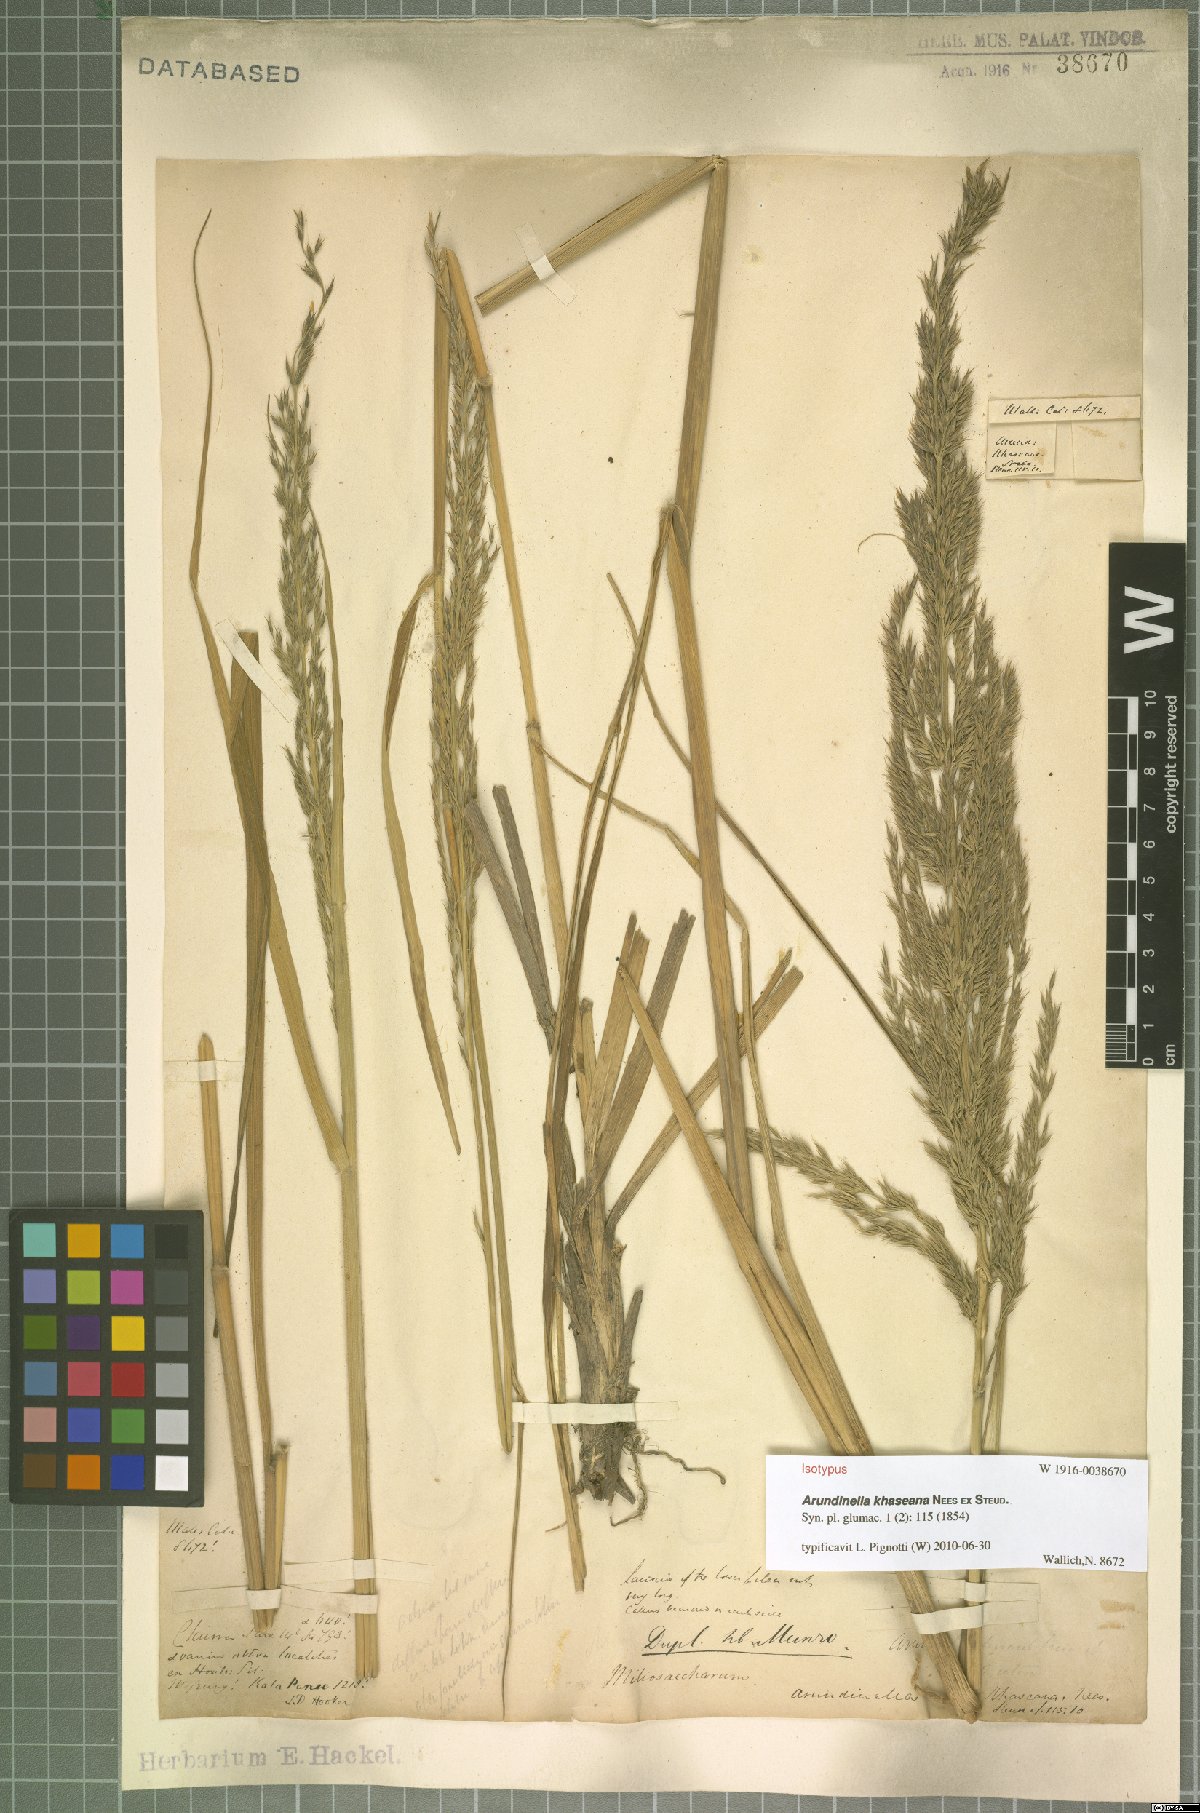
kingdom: Plantae
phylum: Tracheophyta
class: Liliopsida
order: Poales
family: Poaceae
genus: Arundinella
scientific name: Arundinella khaseana
